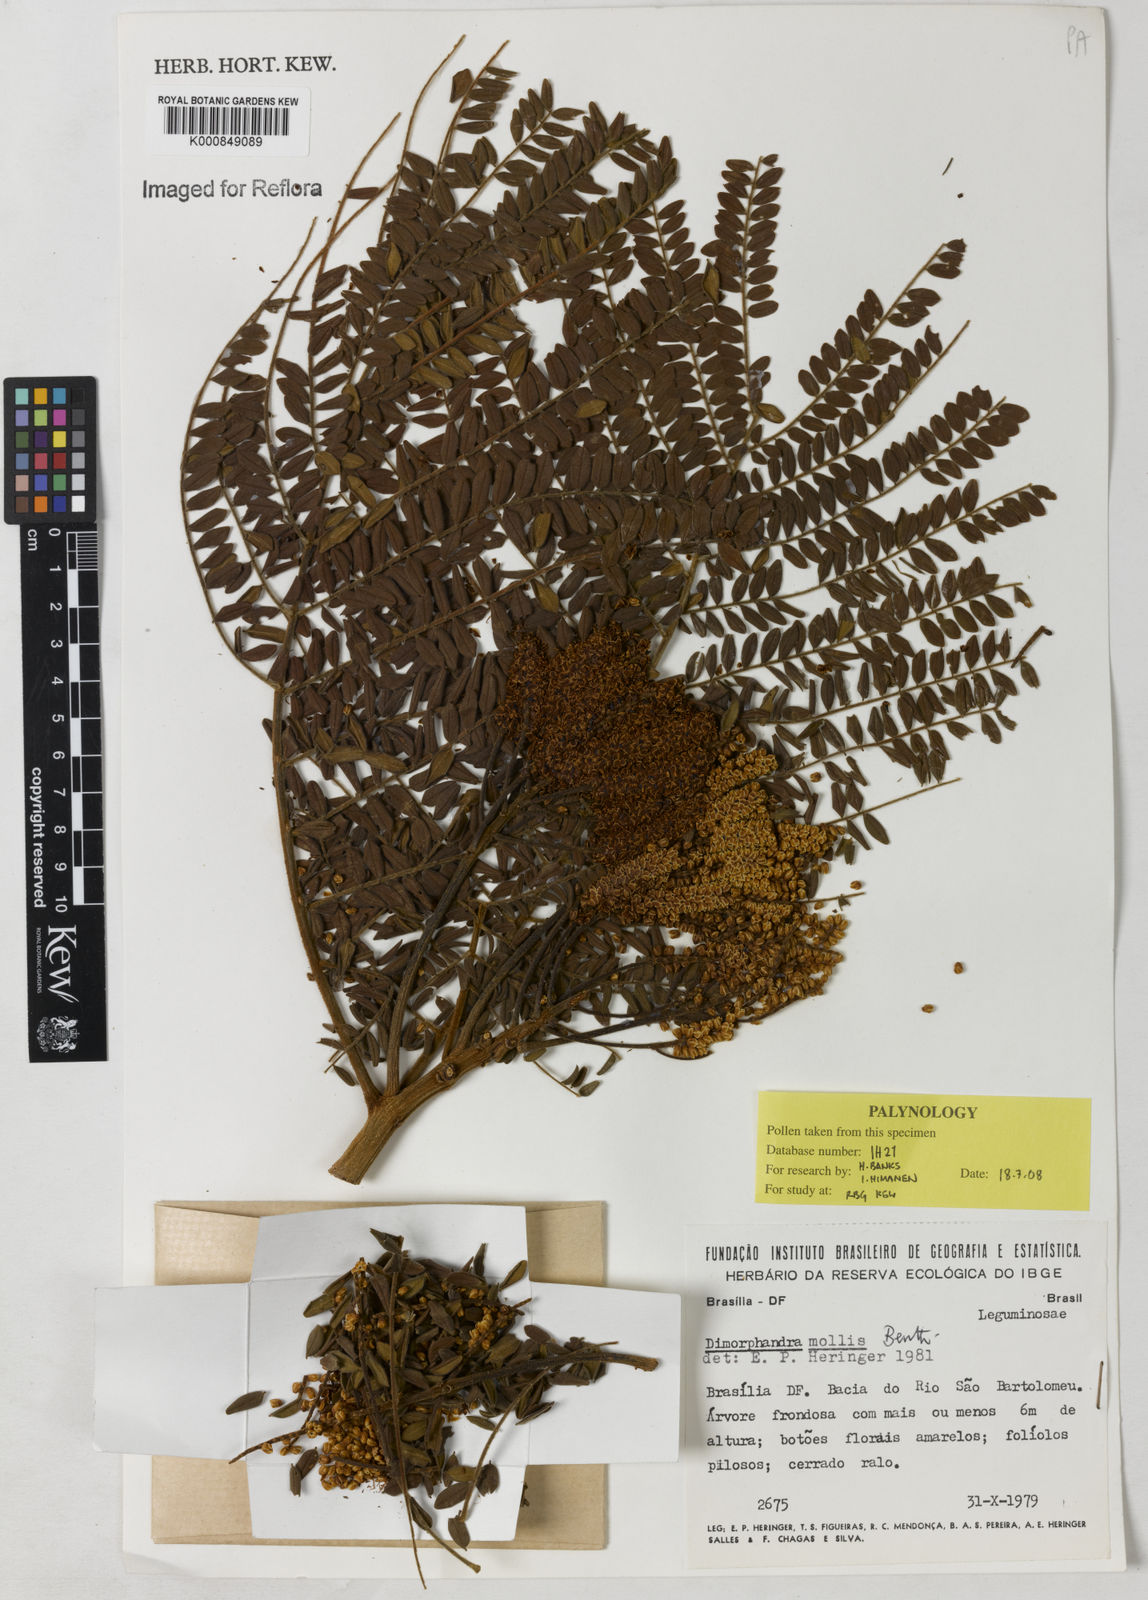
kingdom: Plantae
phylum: Tracheophyta
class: Magnoliopsida
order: Fabales
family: Fabaceae
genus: Dimorphandra
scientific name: Dimorphandra mollis
